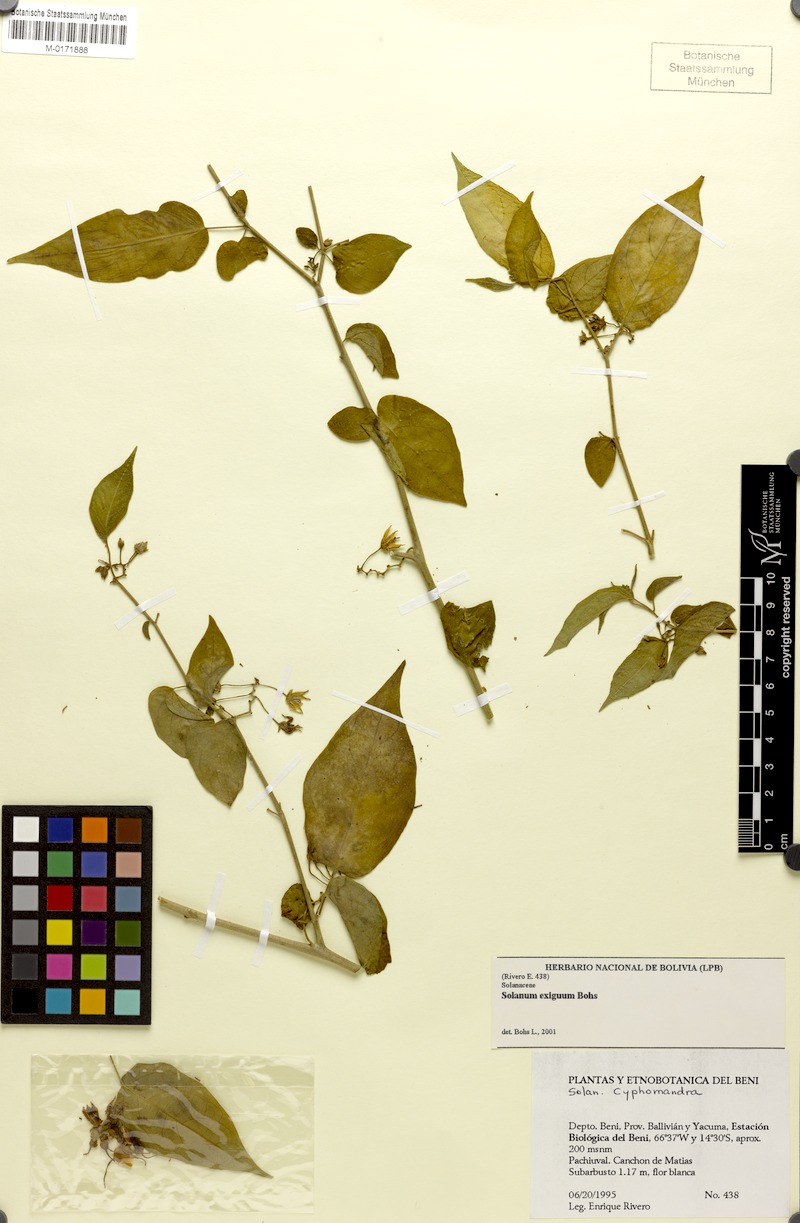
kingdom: Plantae
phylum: Tracheophyta
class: Magnoliopsida
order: Solanales
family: Solanaceae
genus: Solanum
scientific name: Solanum exiguum
